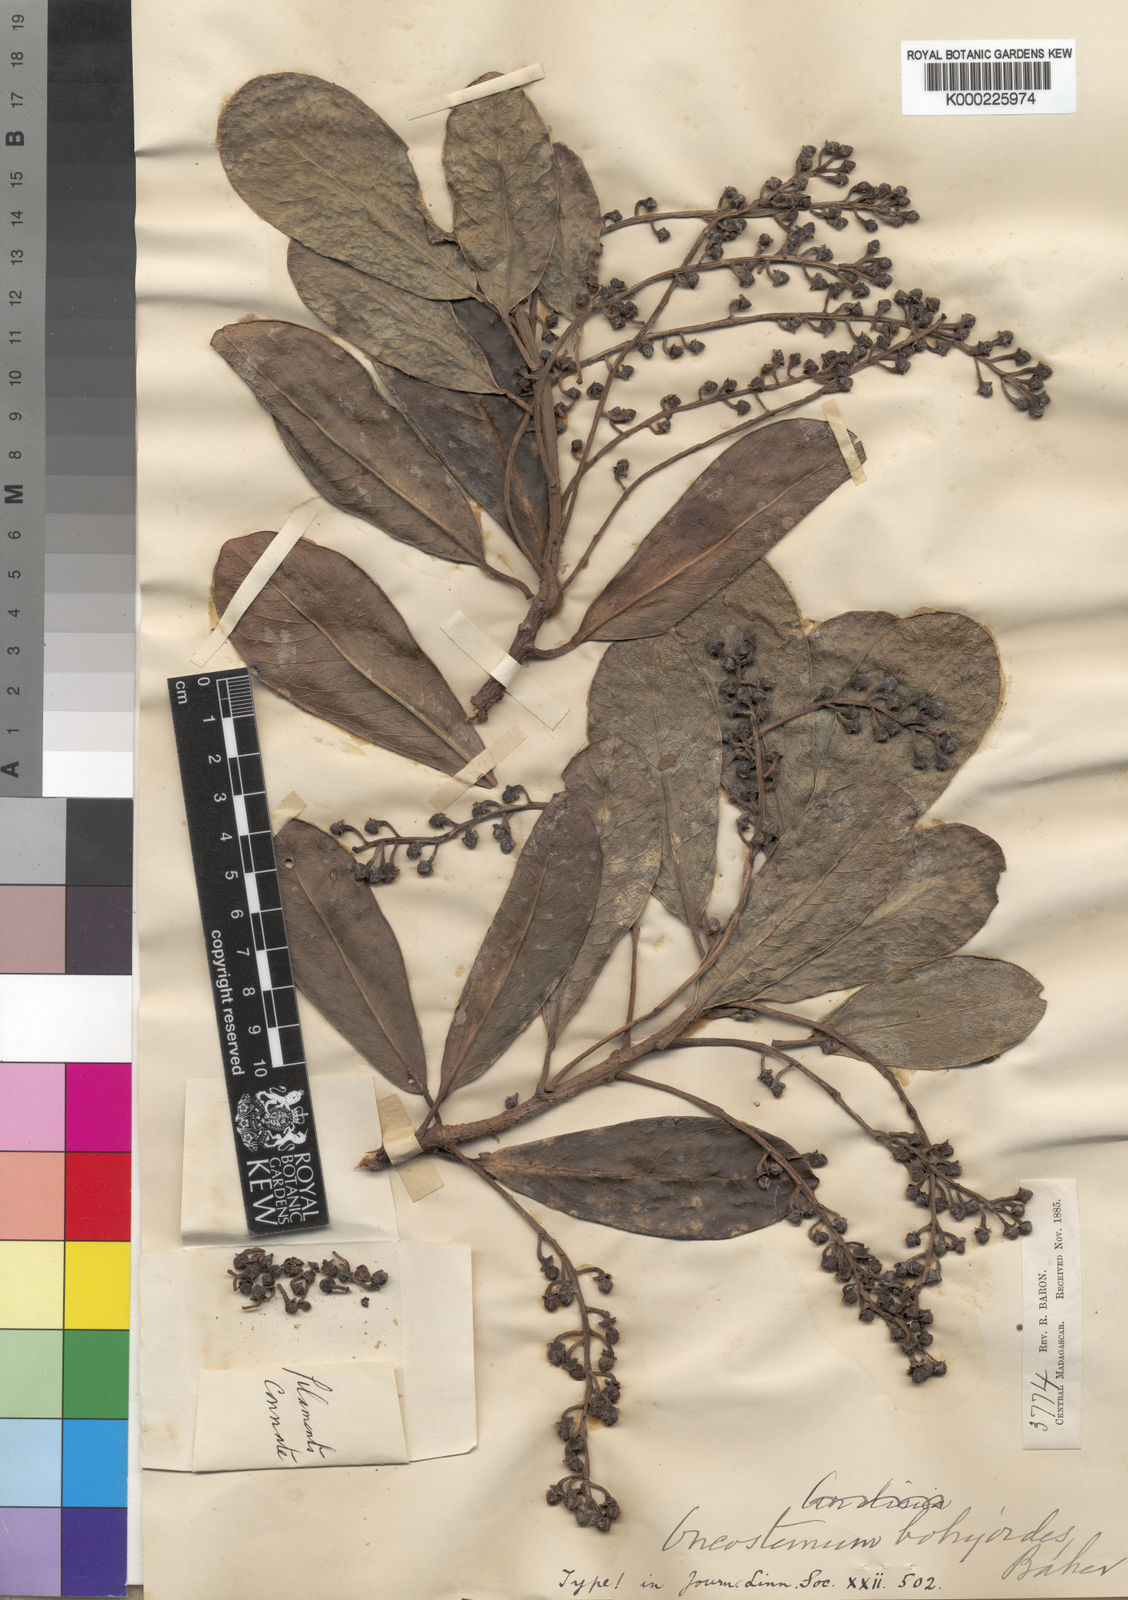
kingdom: Plantae
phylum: Tracheophyta
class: Magnoliopsida
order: Ericales
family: Primulaceae
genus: Oncostemum
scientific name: Oncostemum botryoides
